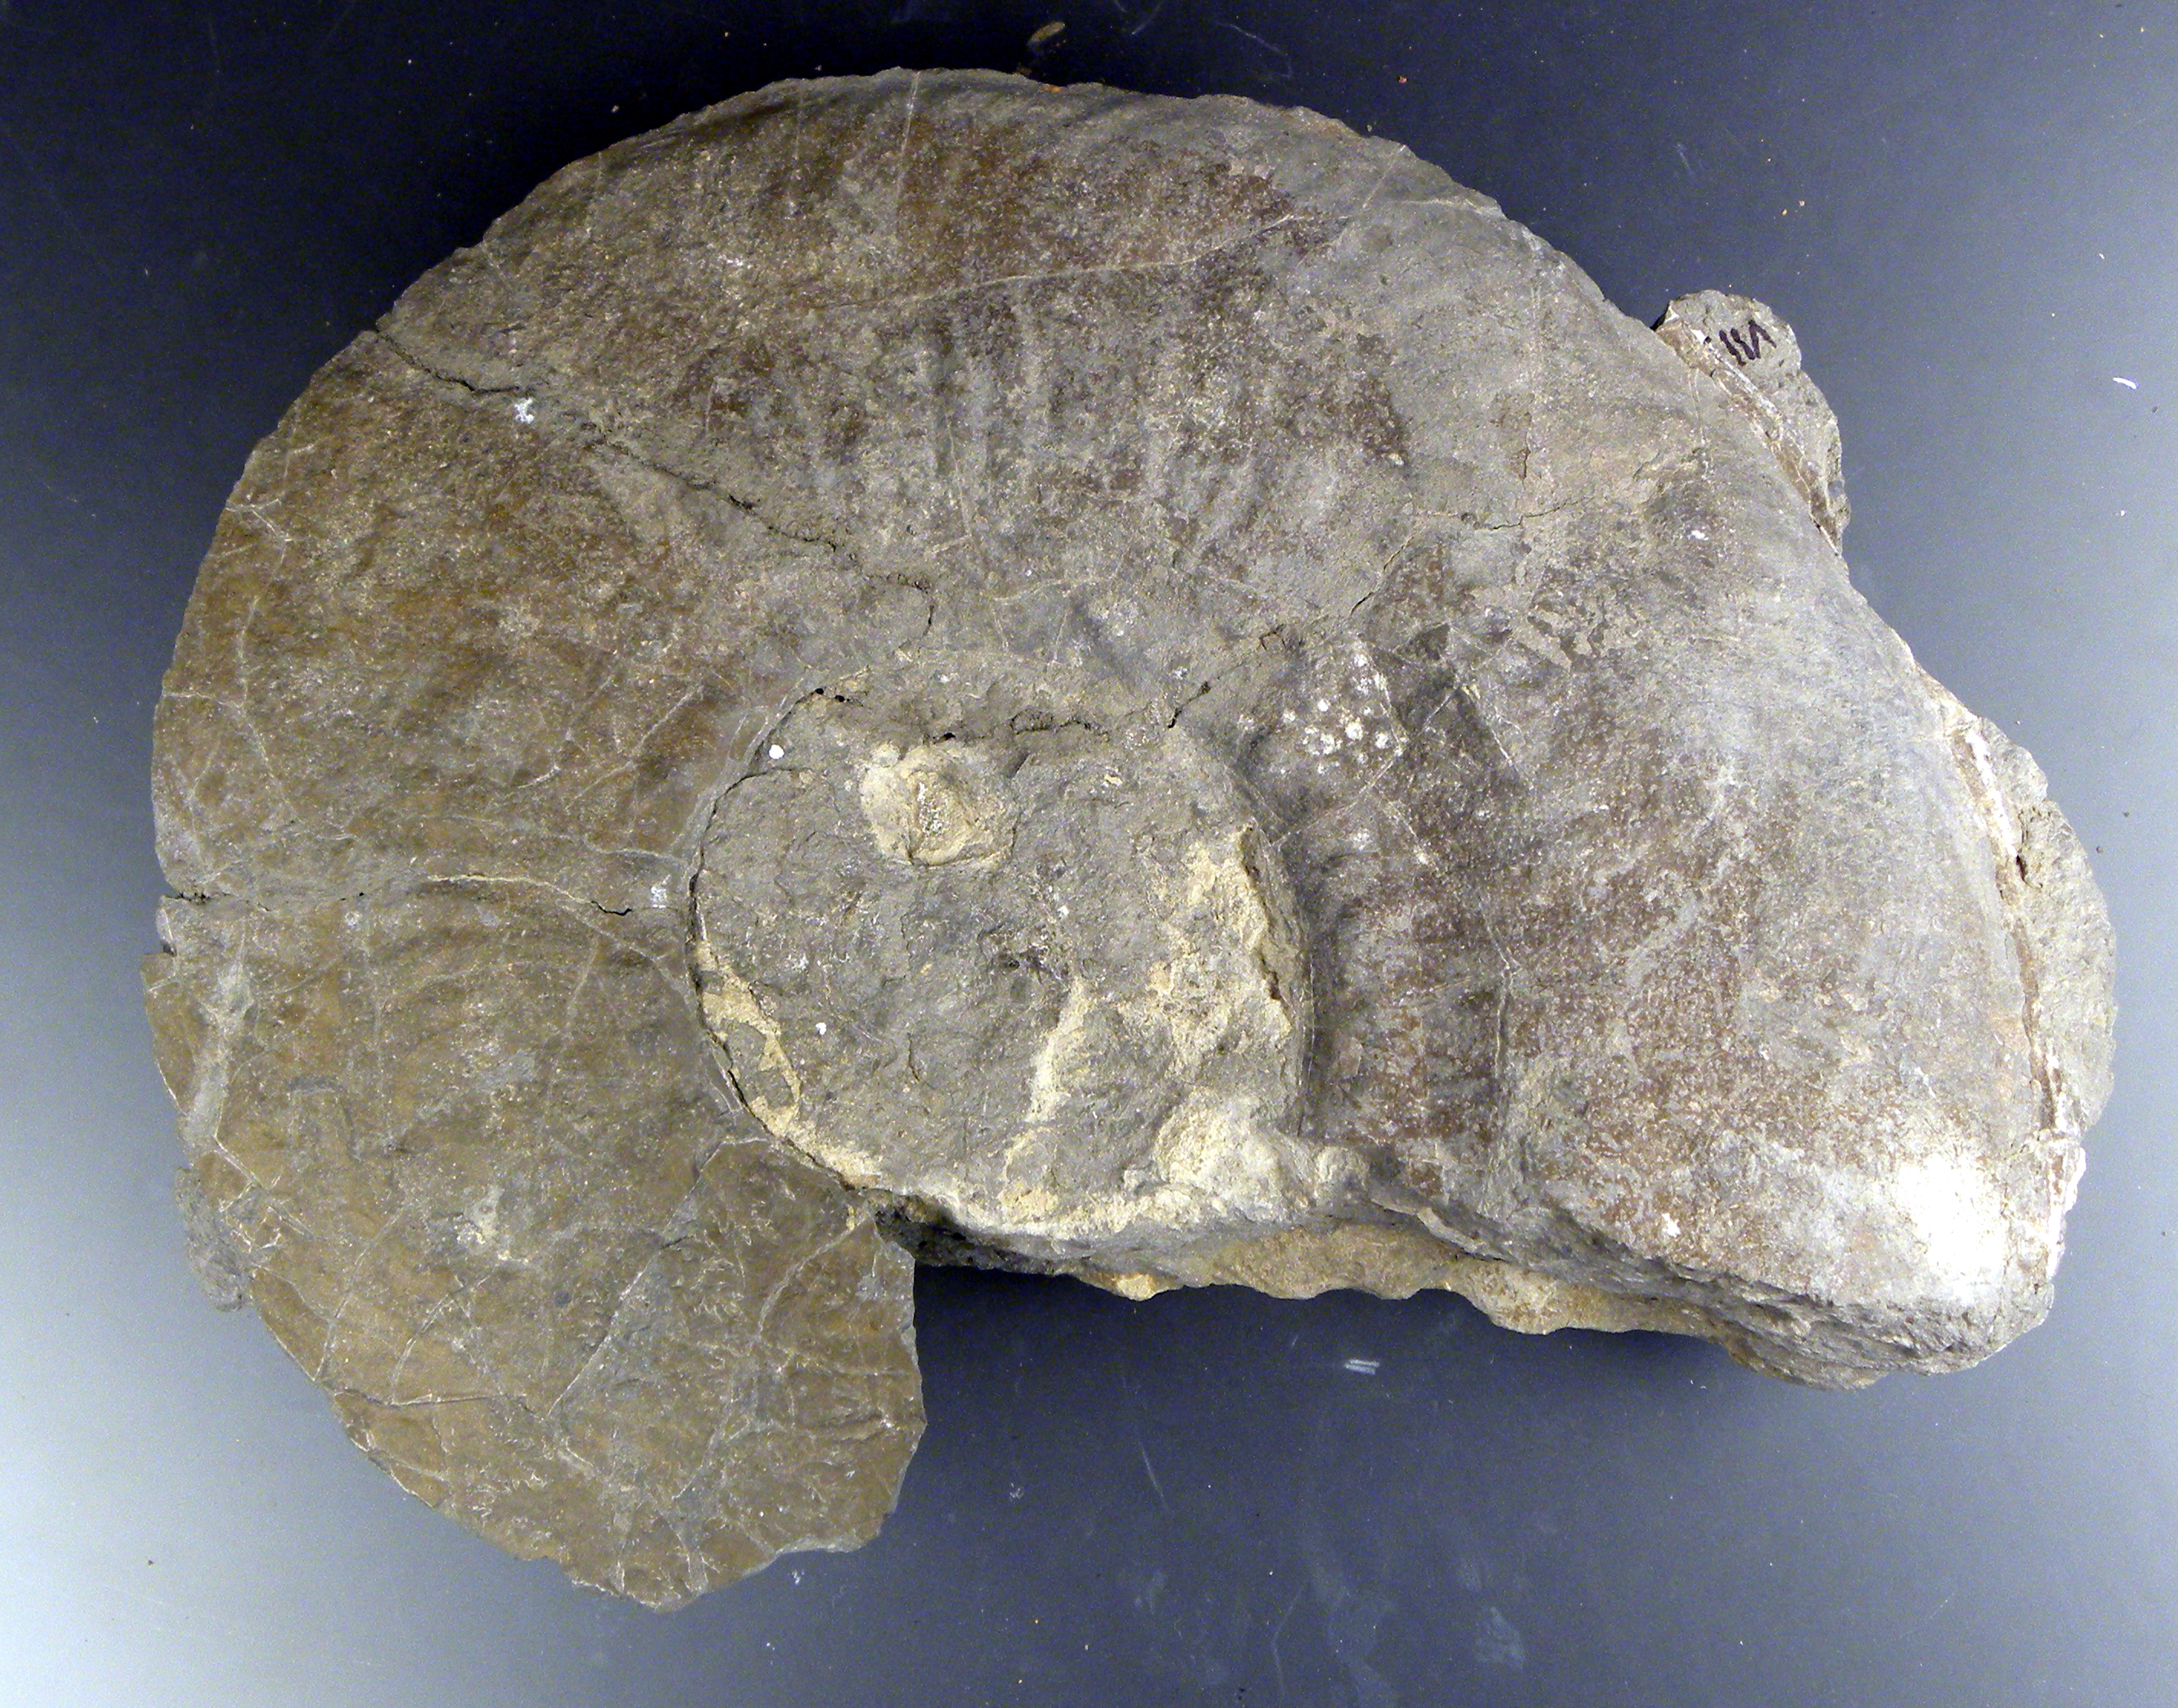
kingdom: Animalia
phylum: Mollusca
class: Cephalopoda
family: Phymatoceratidae
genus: Haugia
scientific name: Haugia variabilis
